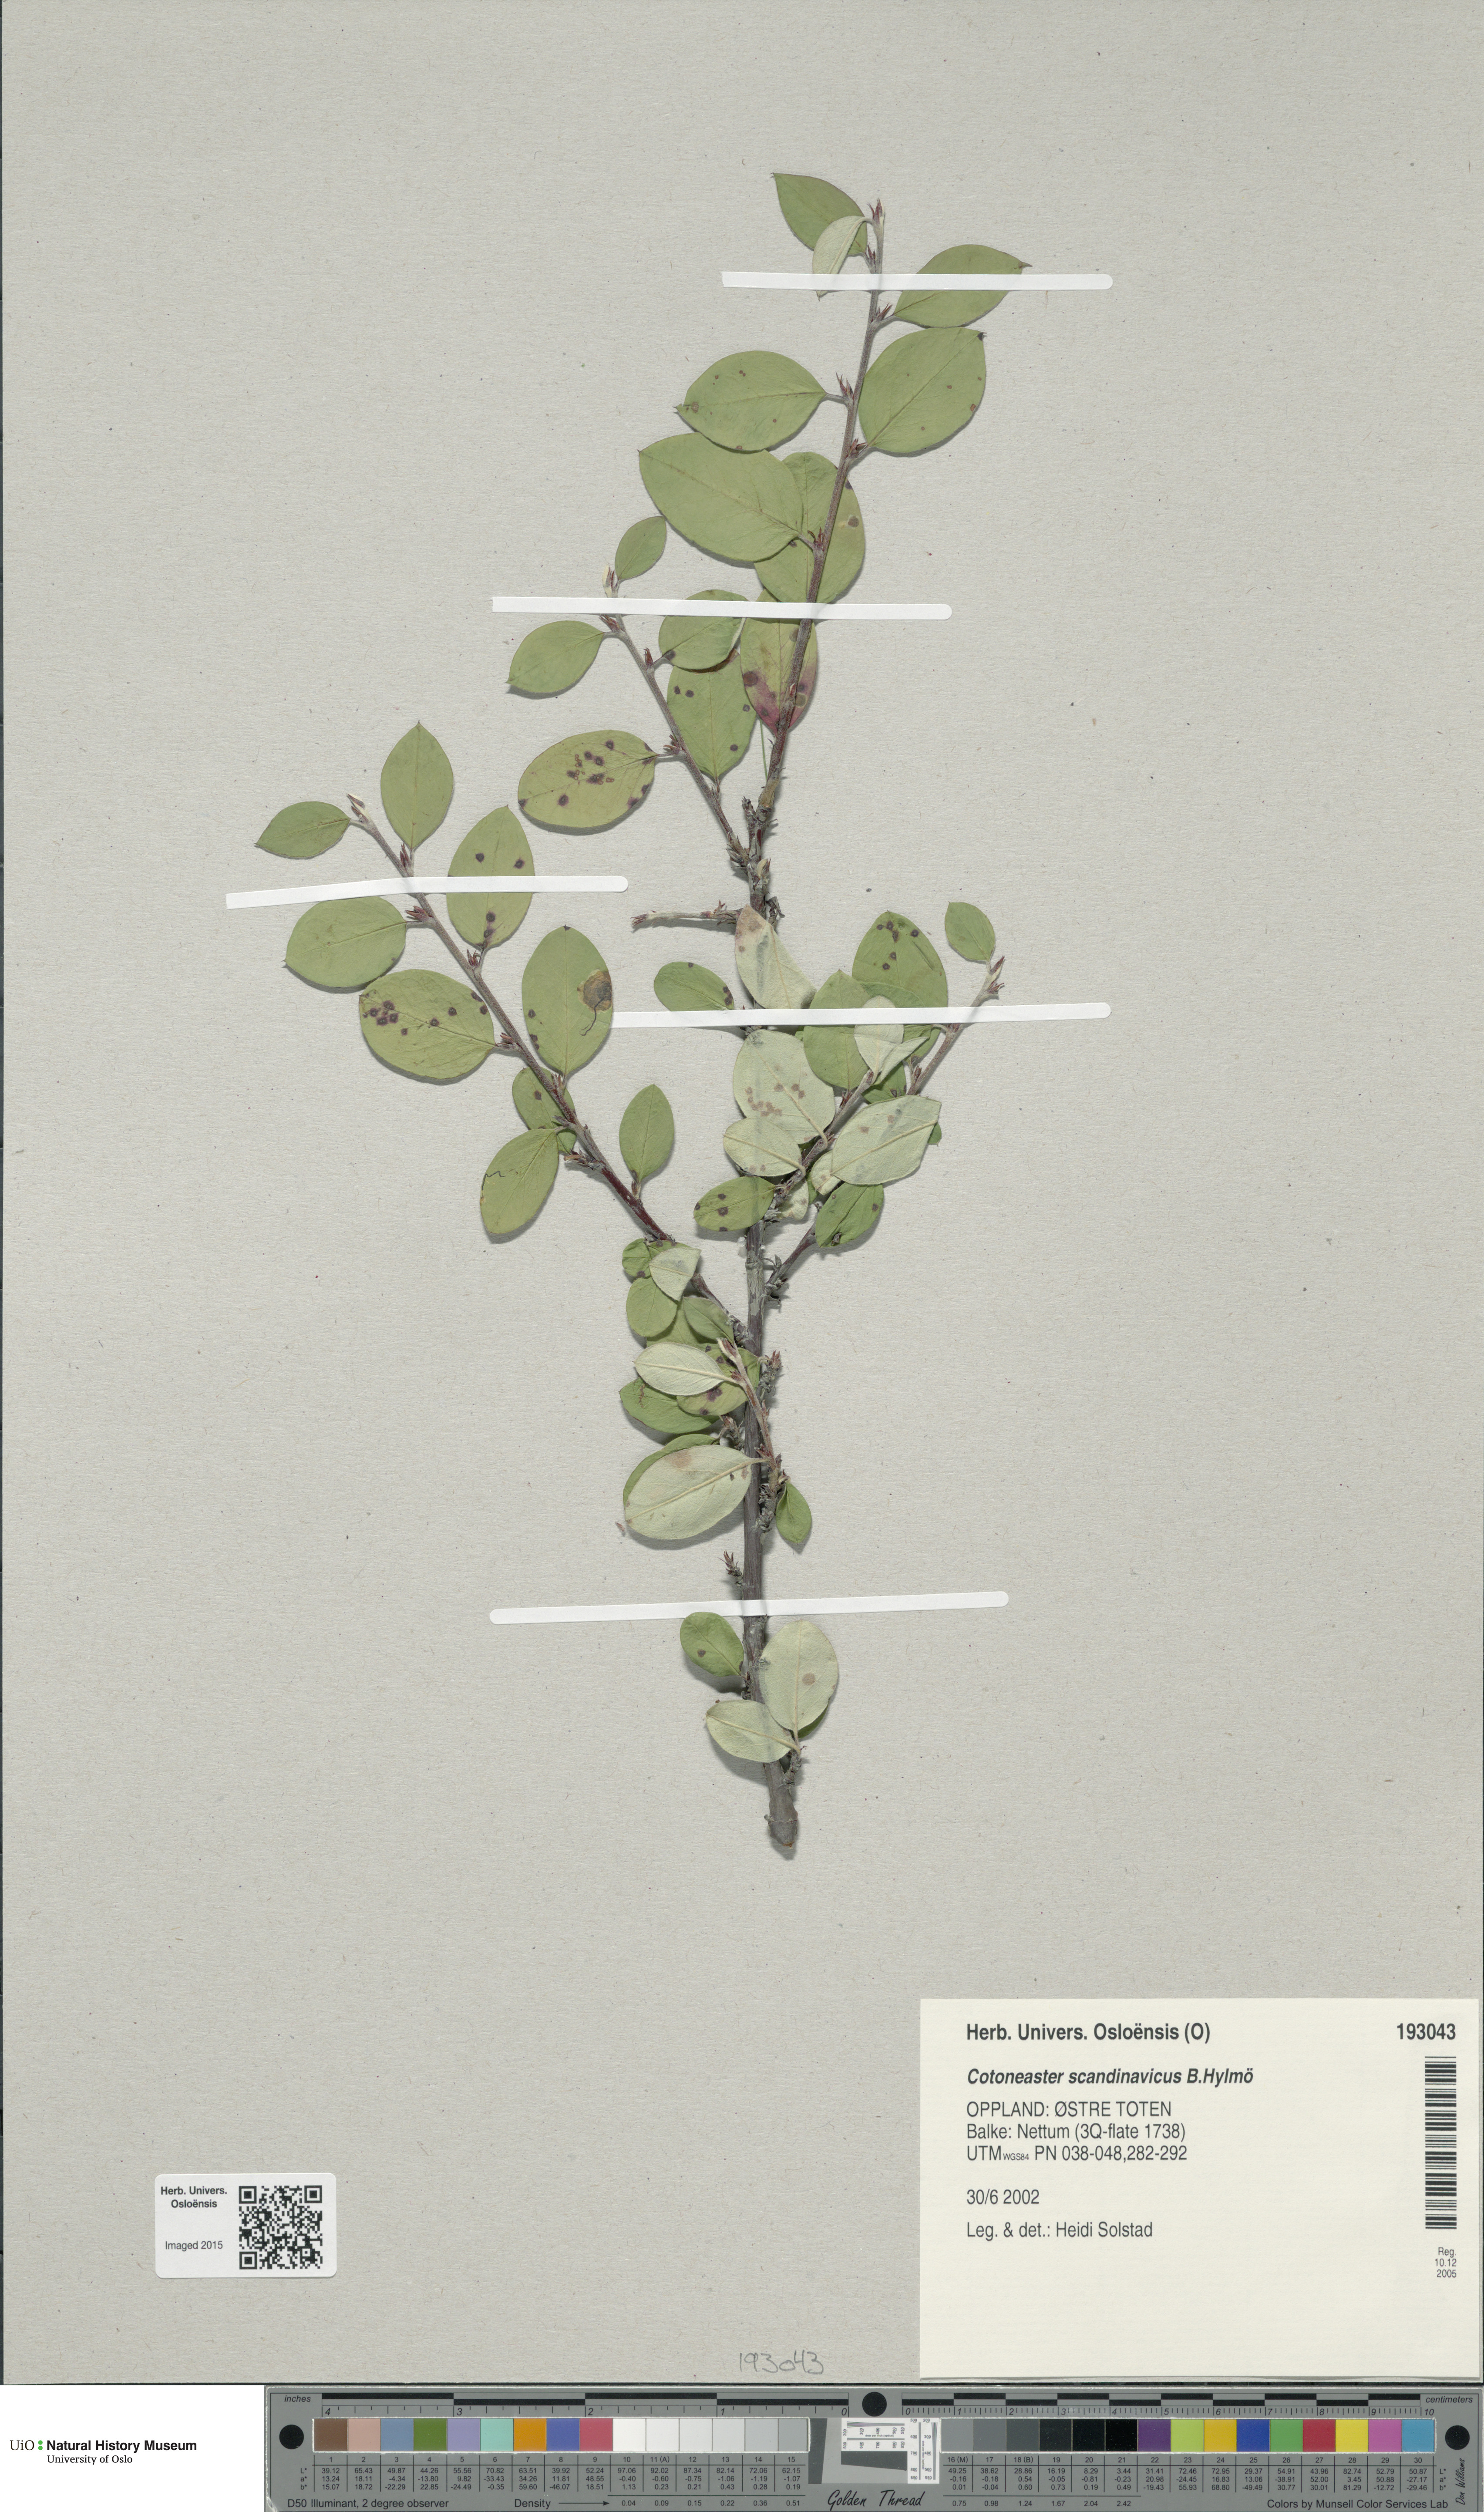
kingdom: Plantae
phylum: Tracheophyta
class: Magnoliopsida
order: Rosales
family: Rosaceae
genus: Cotoneaster
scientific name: Cotoneaster integerrimus
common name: Wild cotoneaster
